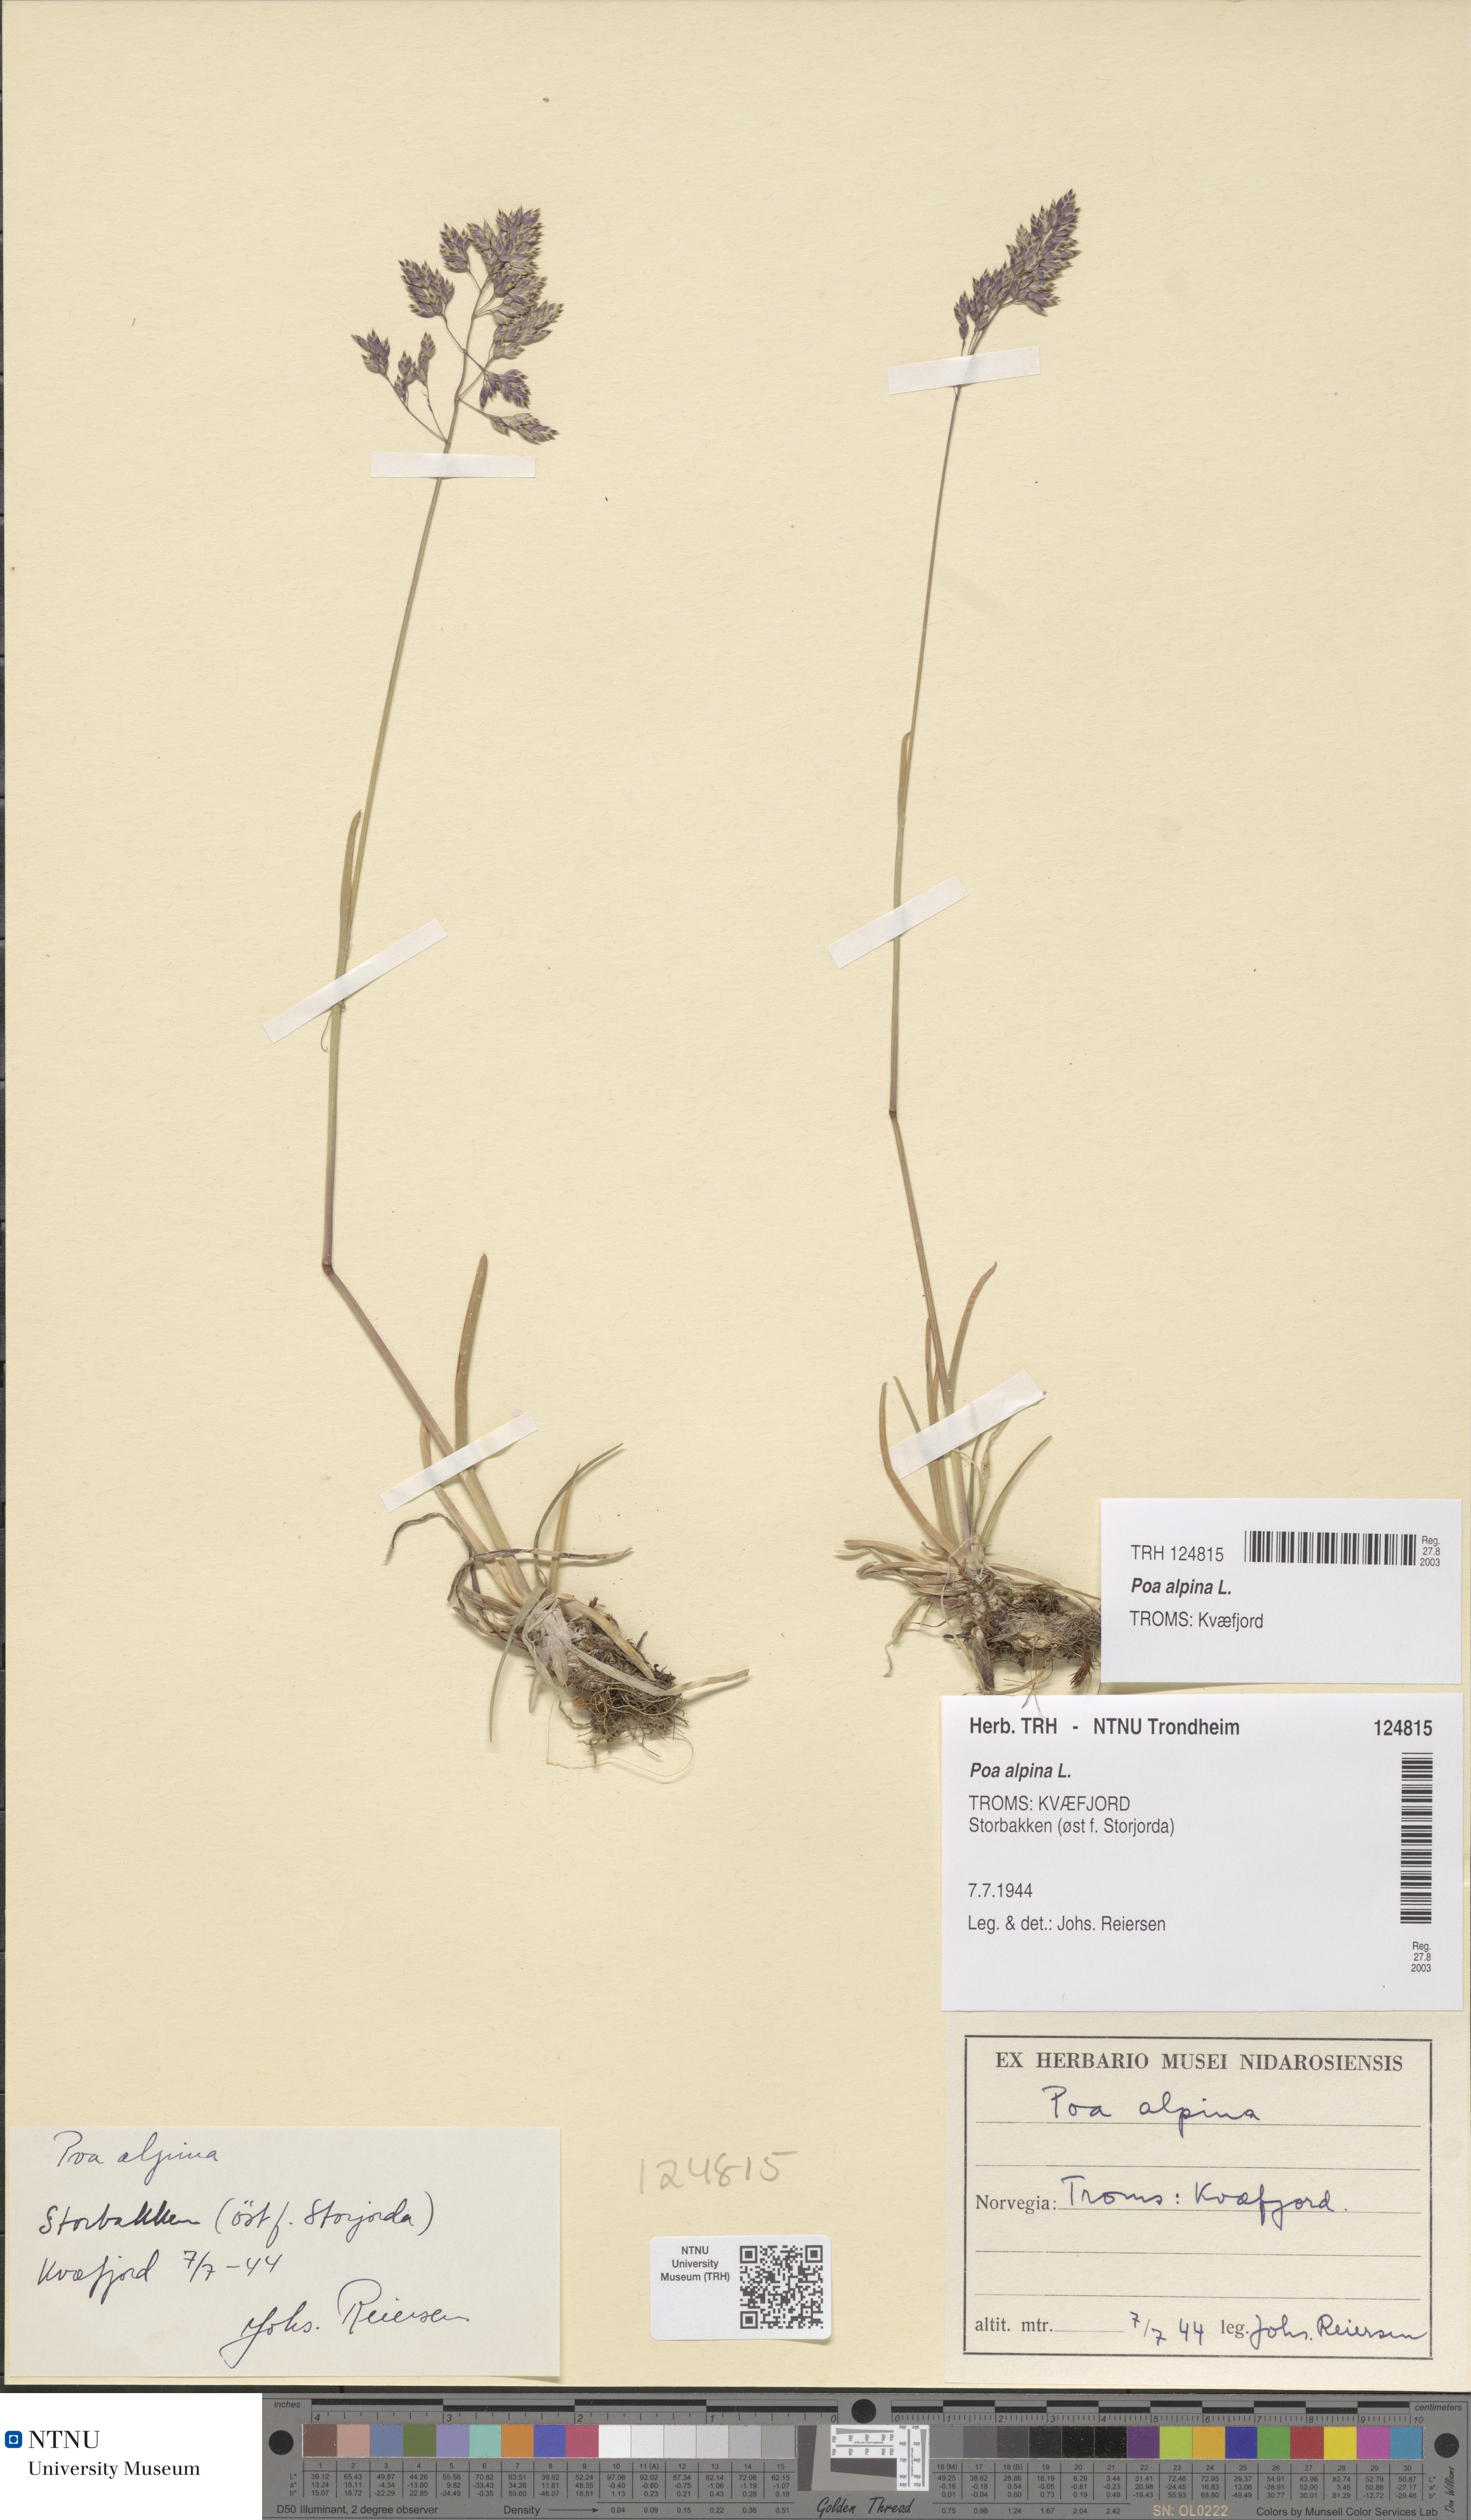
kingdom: Plantae
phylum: Tracheophyta
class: Liliopsida
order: Poales
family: Poaceae
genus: Poa
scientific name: Poa alpina
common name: Alpine bluegrass
